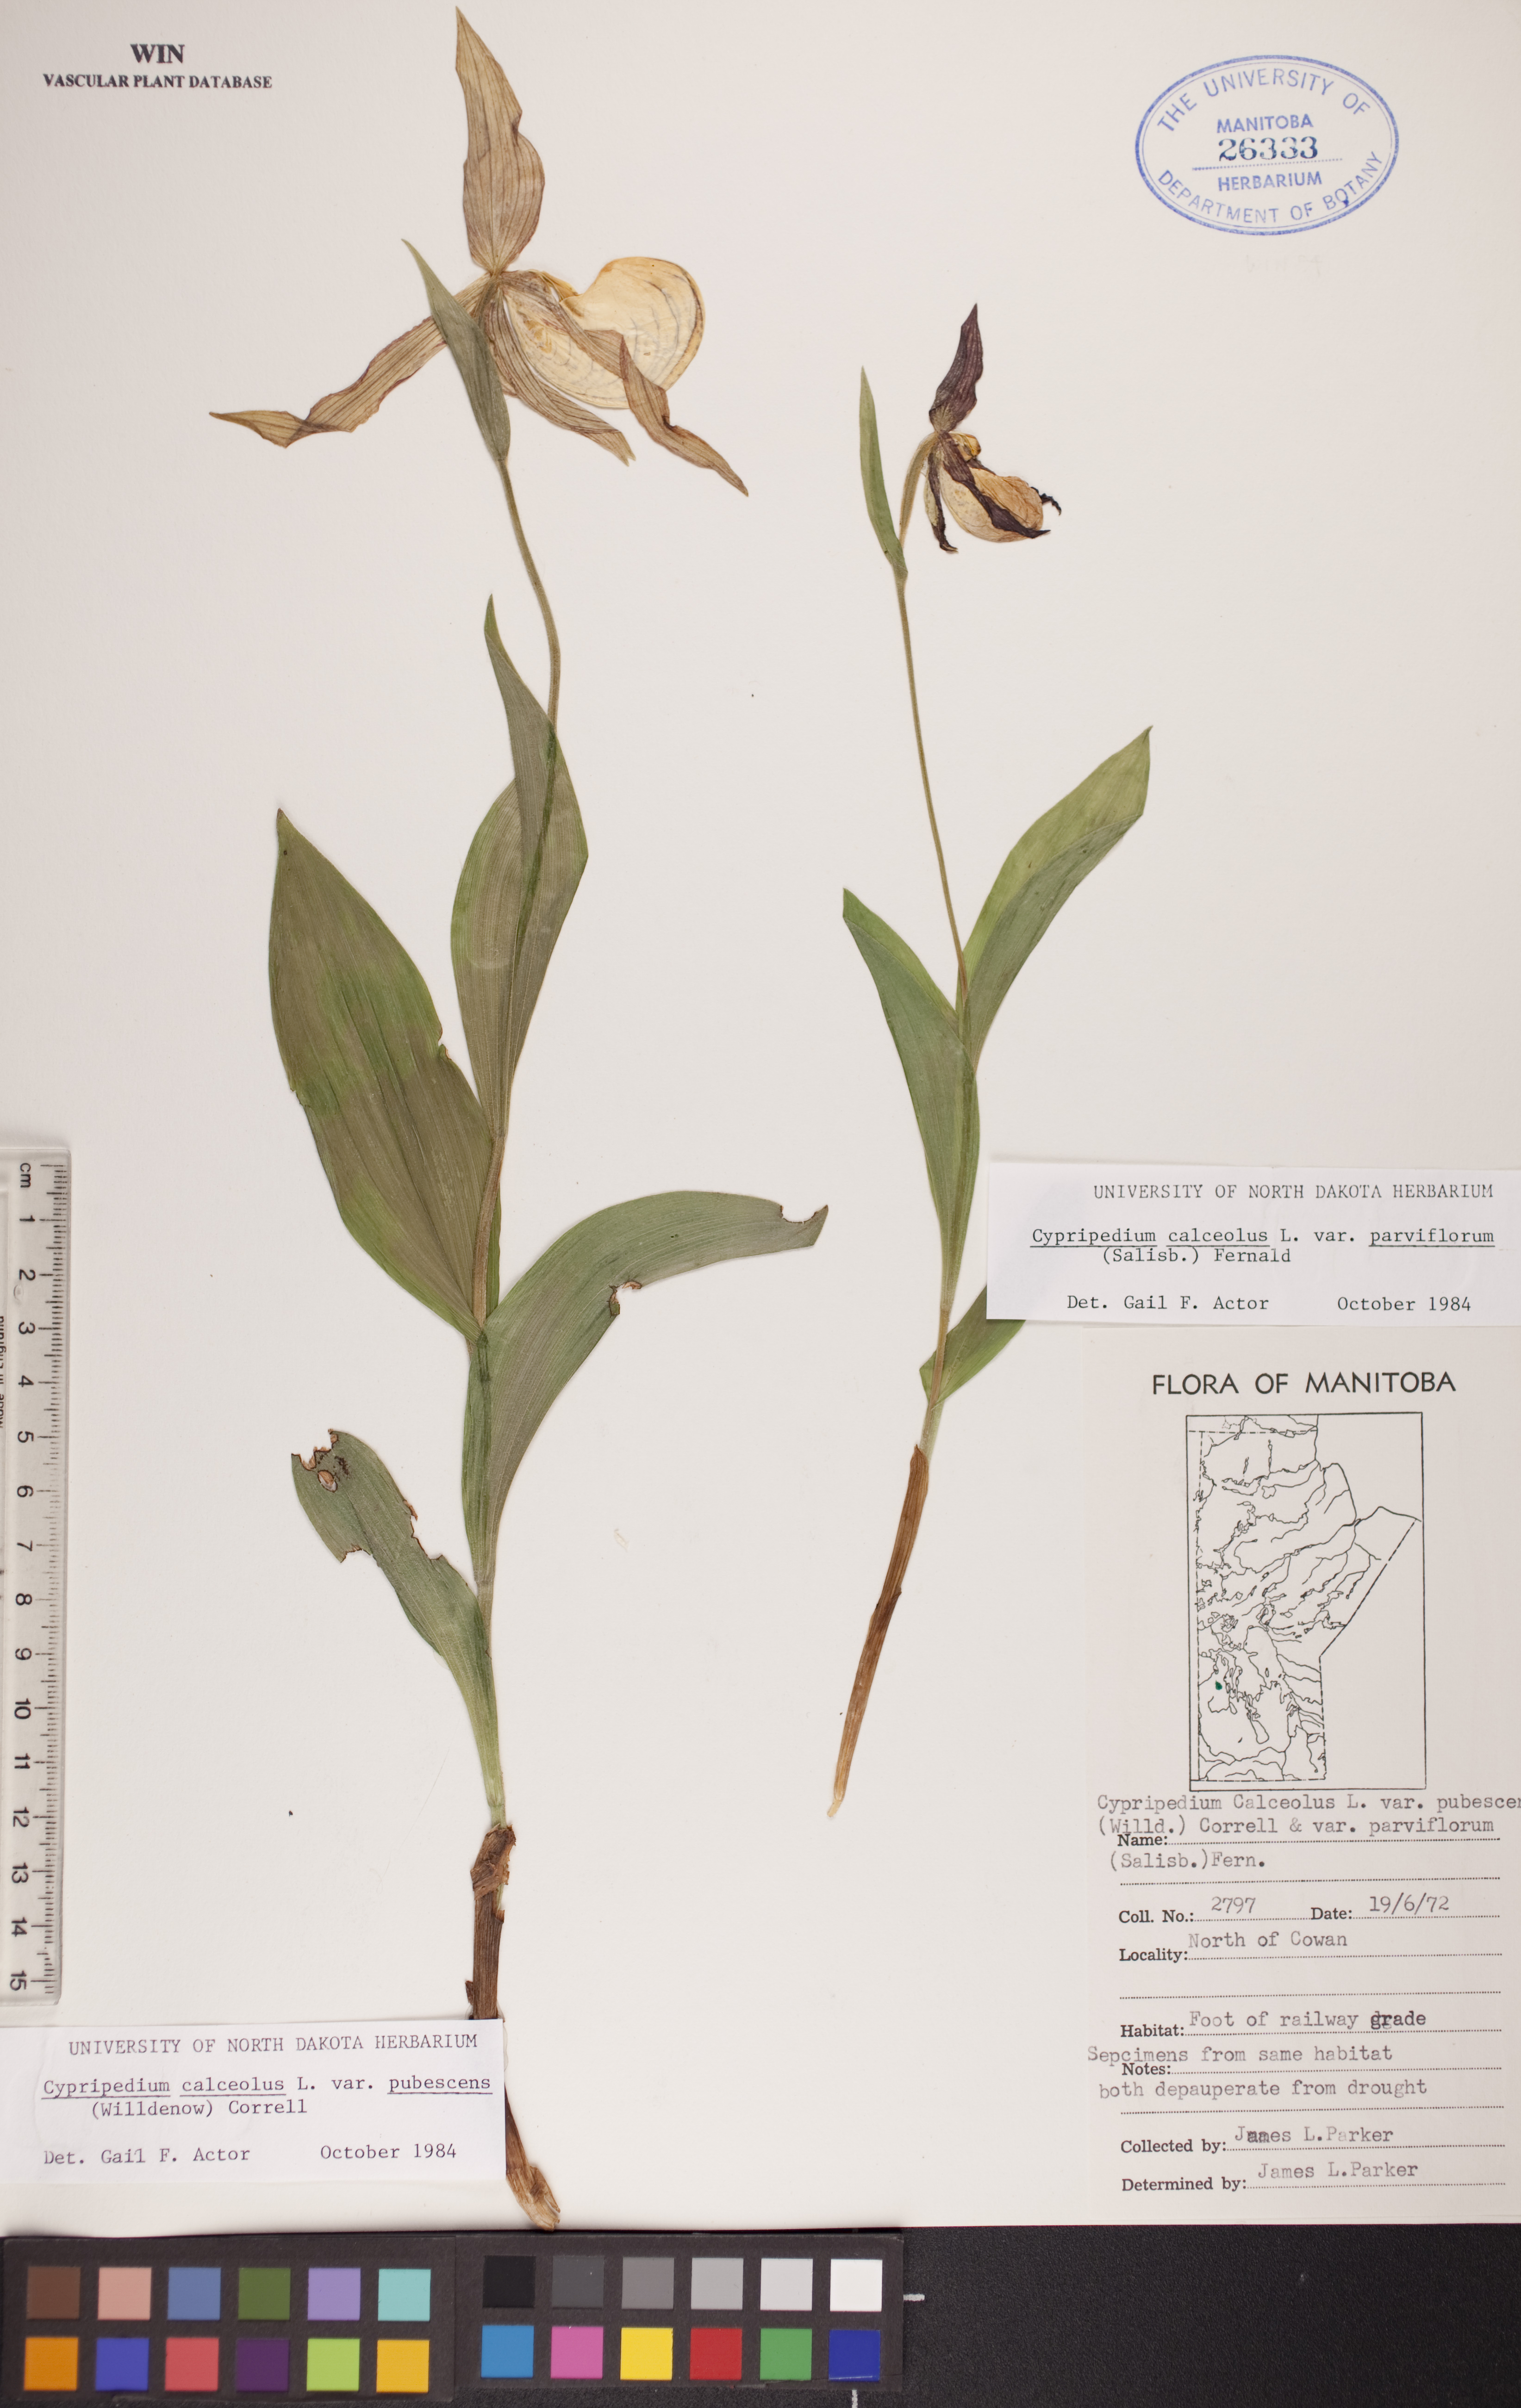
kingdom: Plantae
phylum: Tracheophyta
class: Liliopsida
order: Asparagales
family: Orchidaceae
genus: Cypripedium
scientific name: Cypripedium parviflorum
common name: American yellow lady's-slipper
